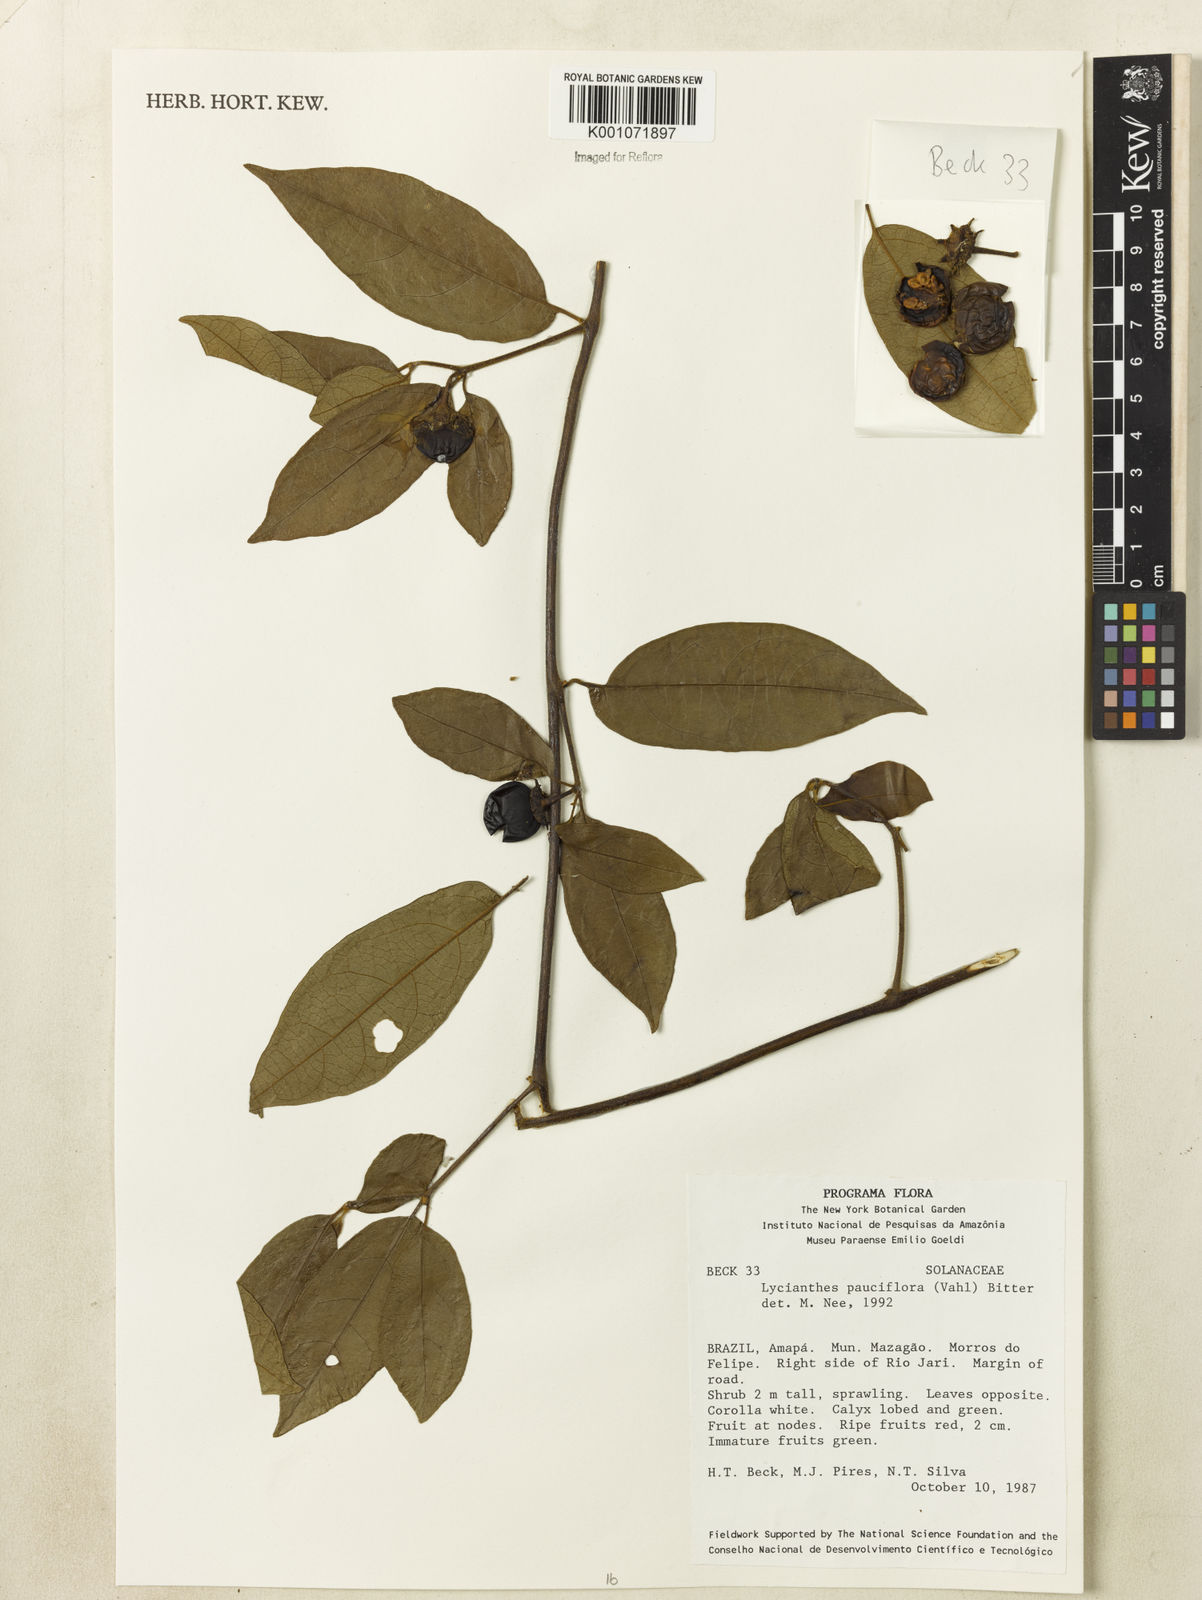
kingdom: Plantae
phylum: Tracheophyta
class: Magnoliopsida
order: Solanales
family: Solanaceae
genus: Lycianthes
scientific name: Lycianthes pauciflora
